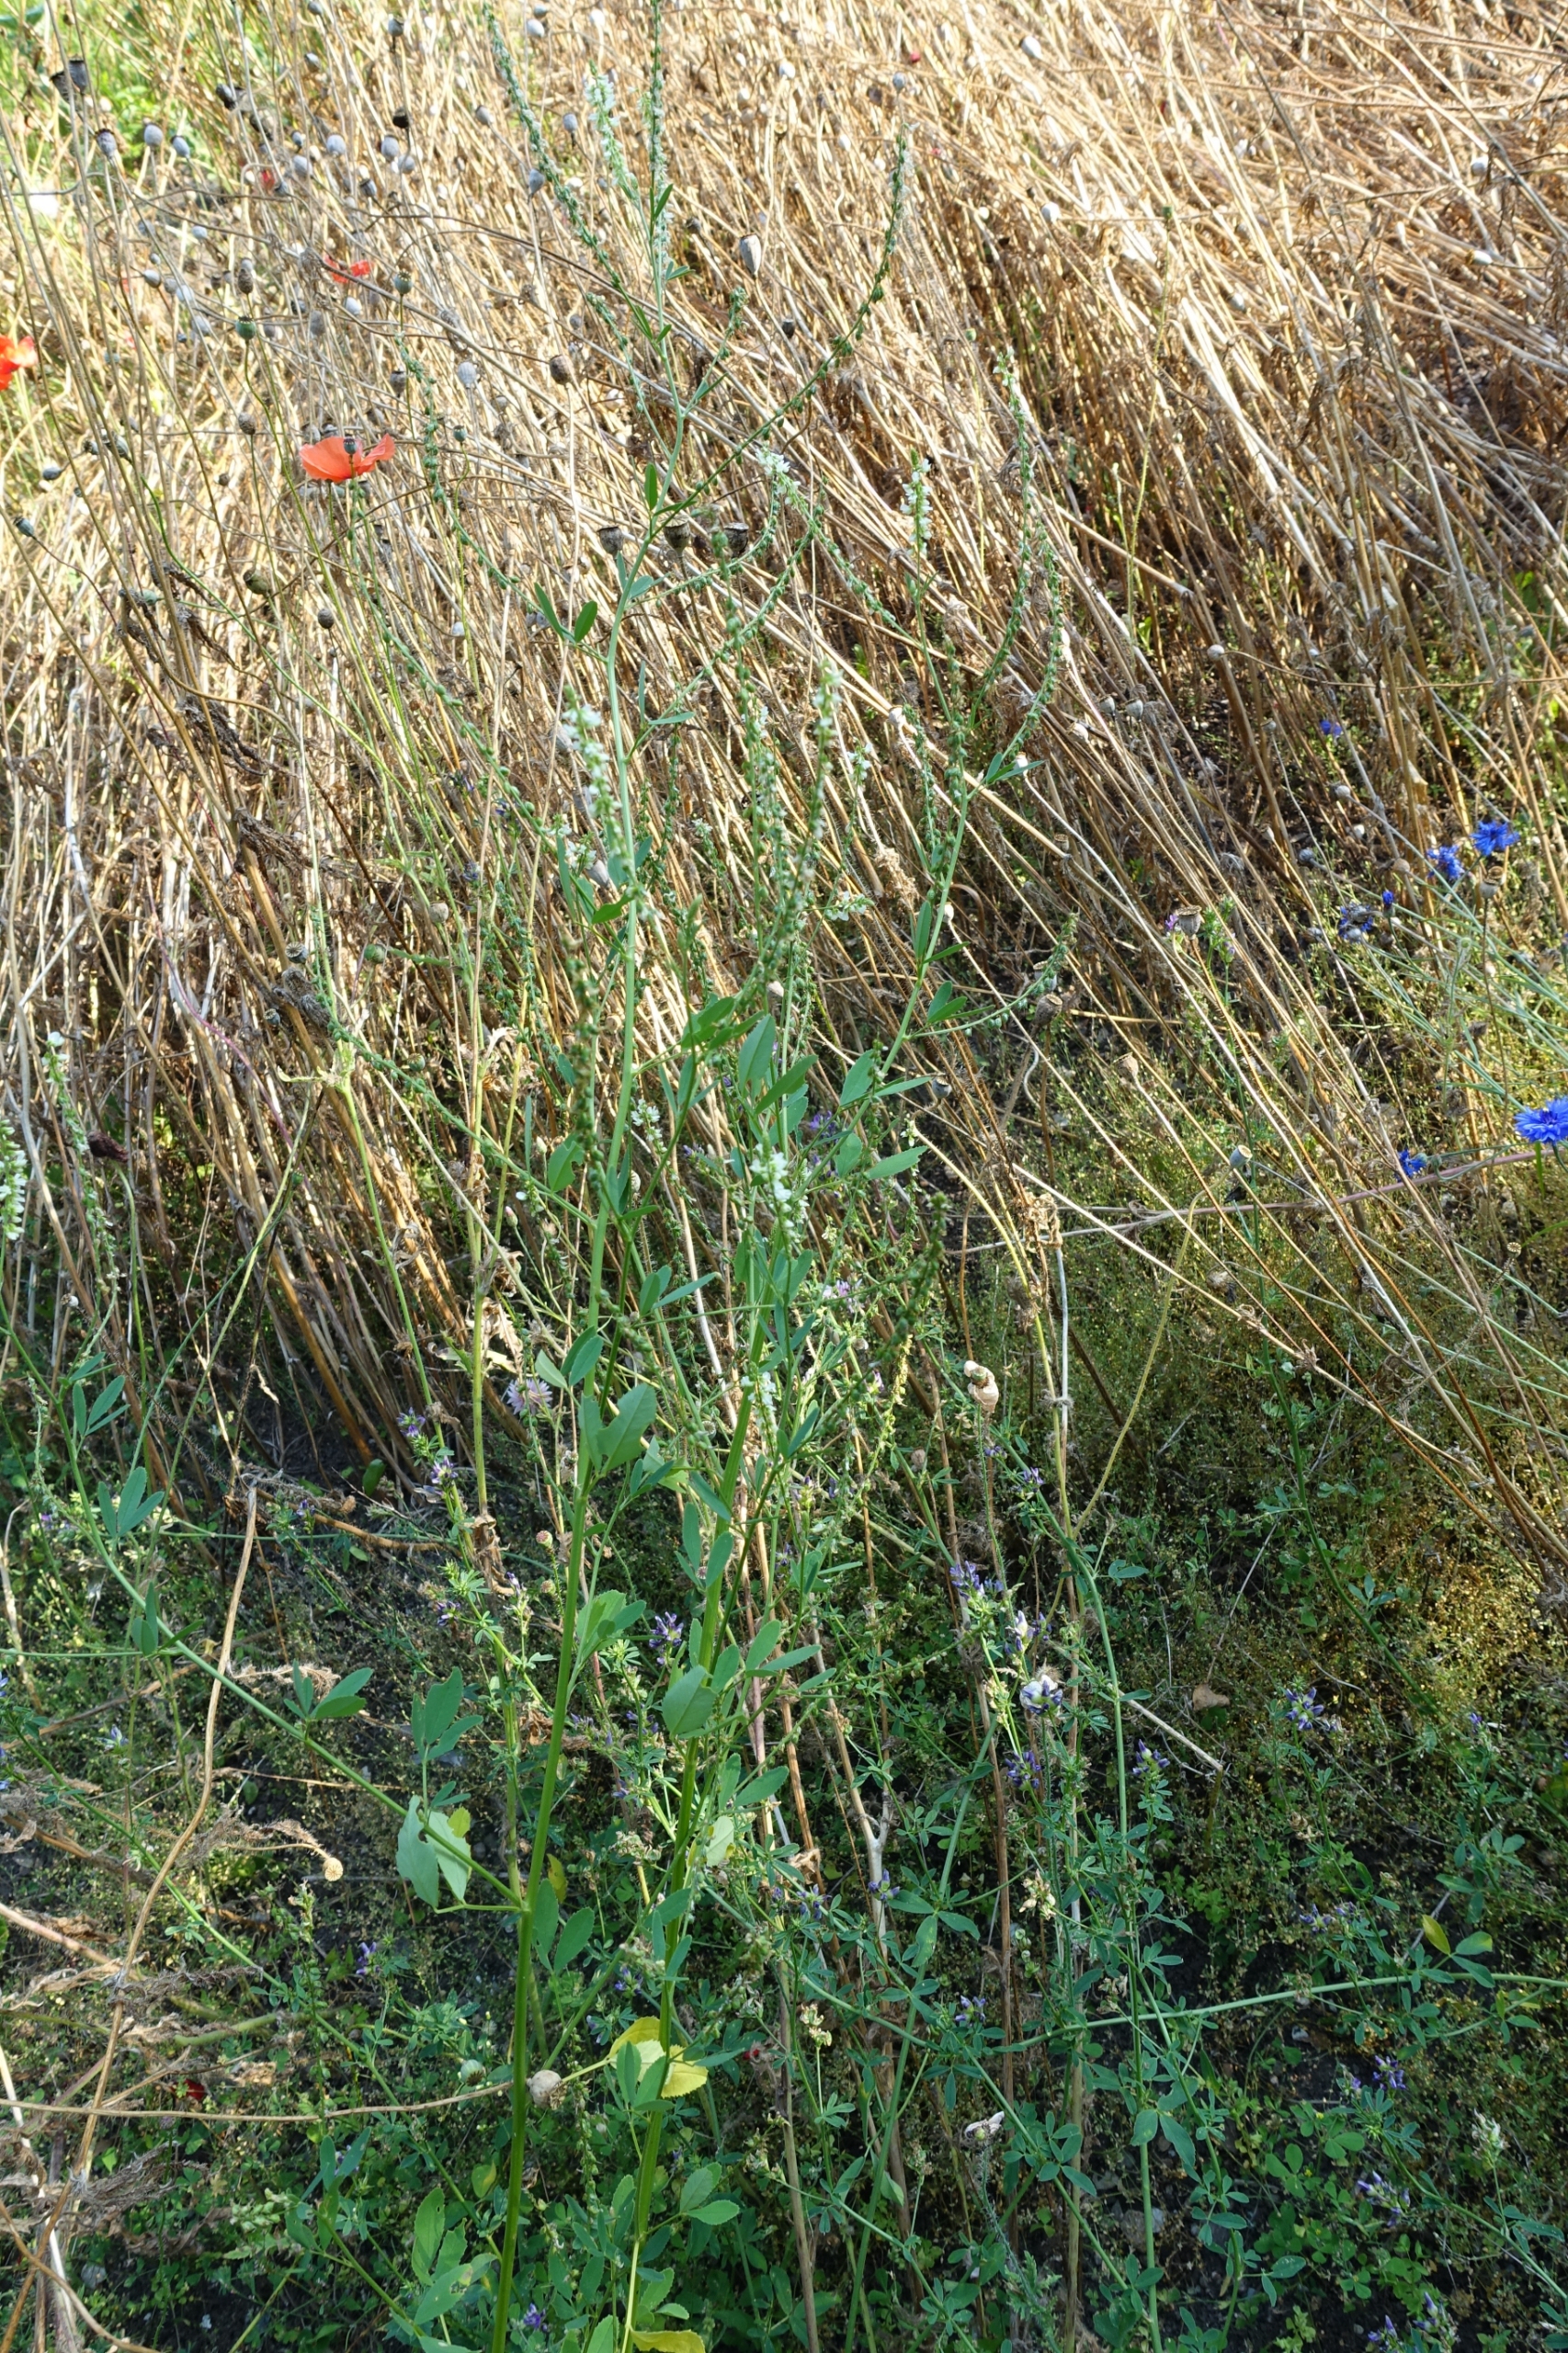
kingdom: Plantae
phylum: Tracheophyta
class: Magnoliopsida
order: Fabales
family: Fabaceae
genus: Melilotus
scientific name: Melilotus albus
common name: Hvid stenkløver
